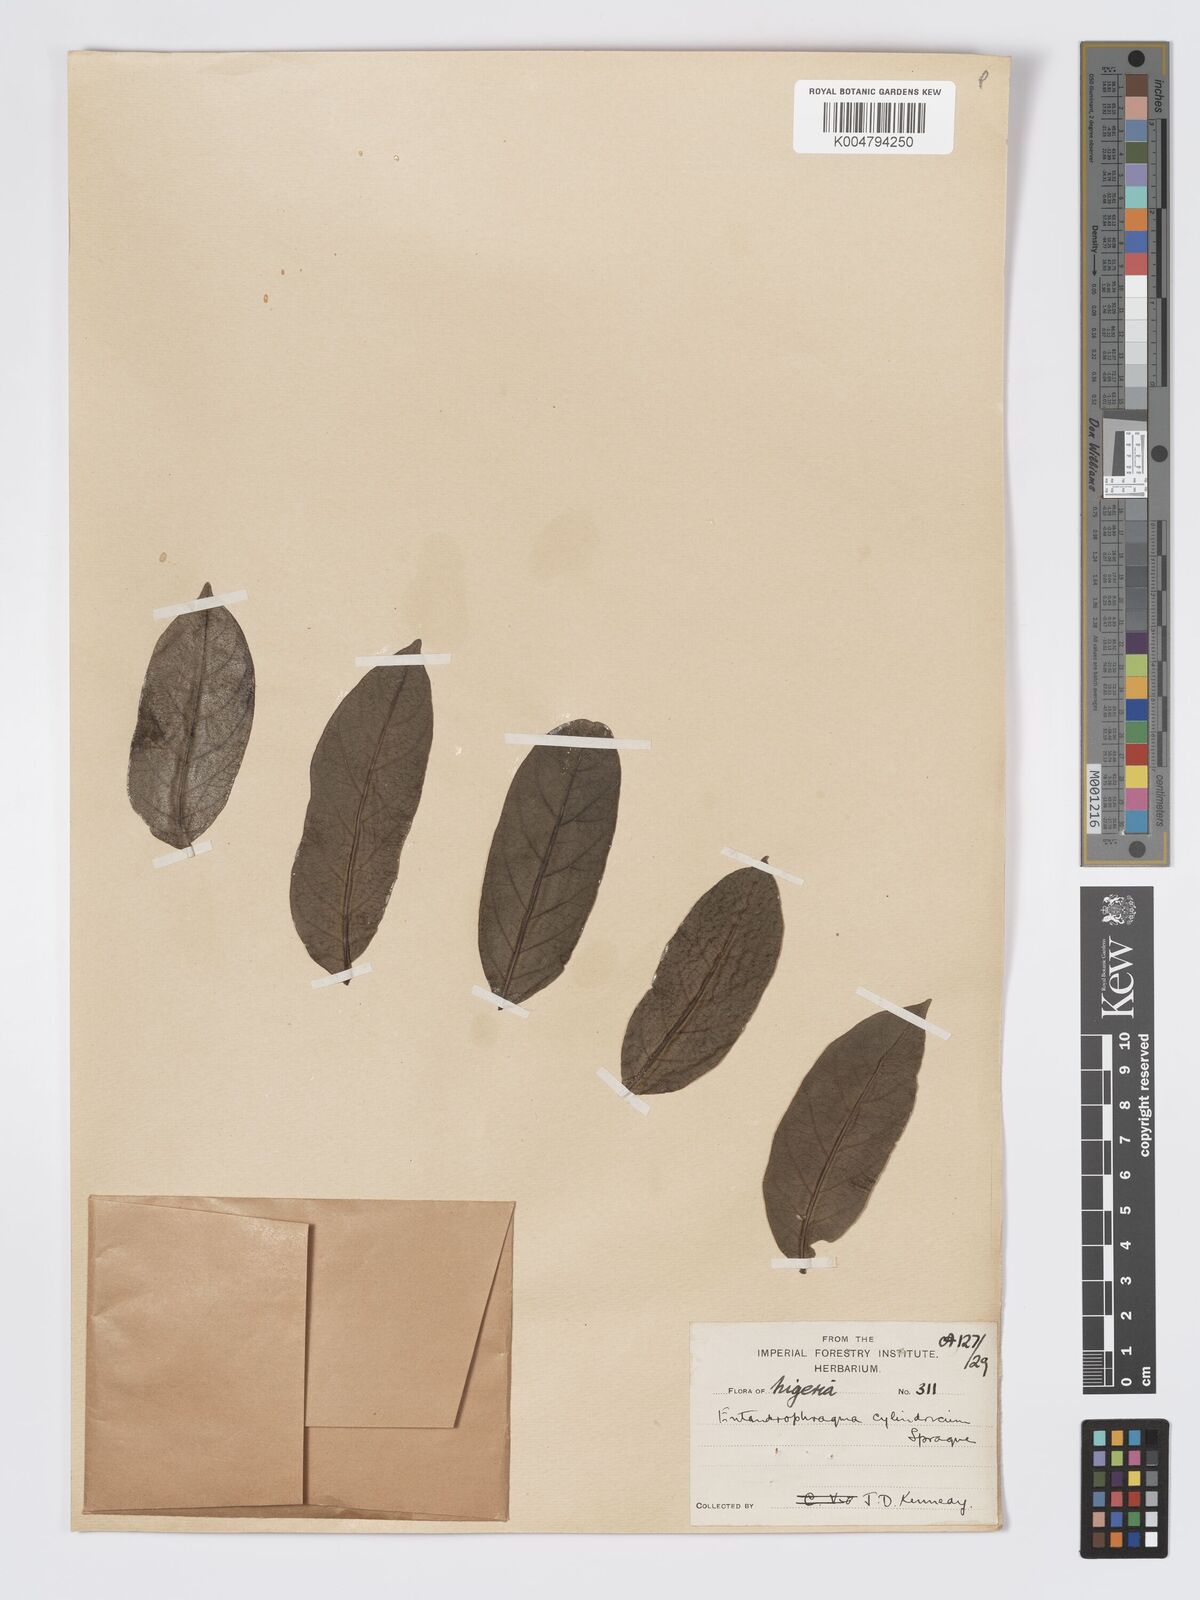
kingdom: Plantae
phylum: Tracheophyta
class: Magnoliopsida
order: Sapindales
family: Meliaceae
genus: Entandrophragma
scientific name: Entandrophragma cylindricum
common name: Sapele
